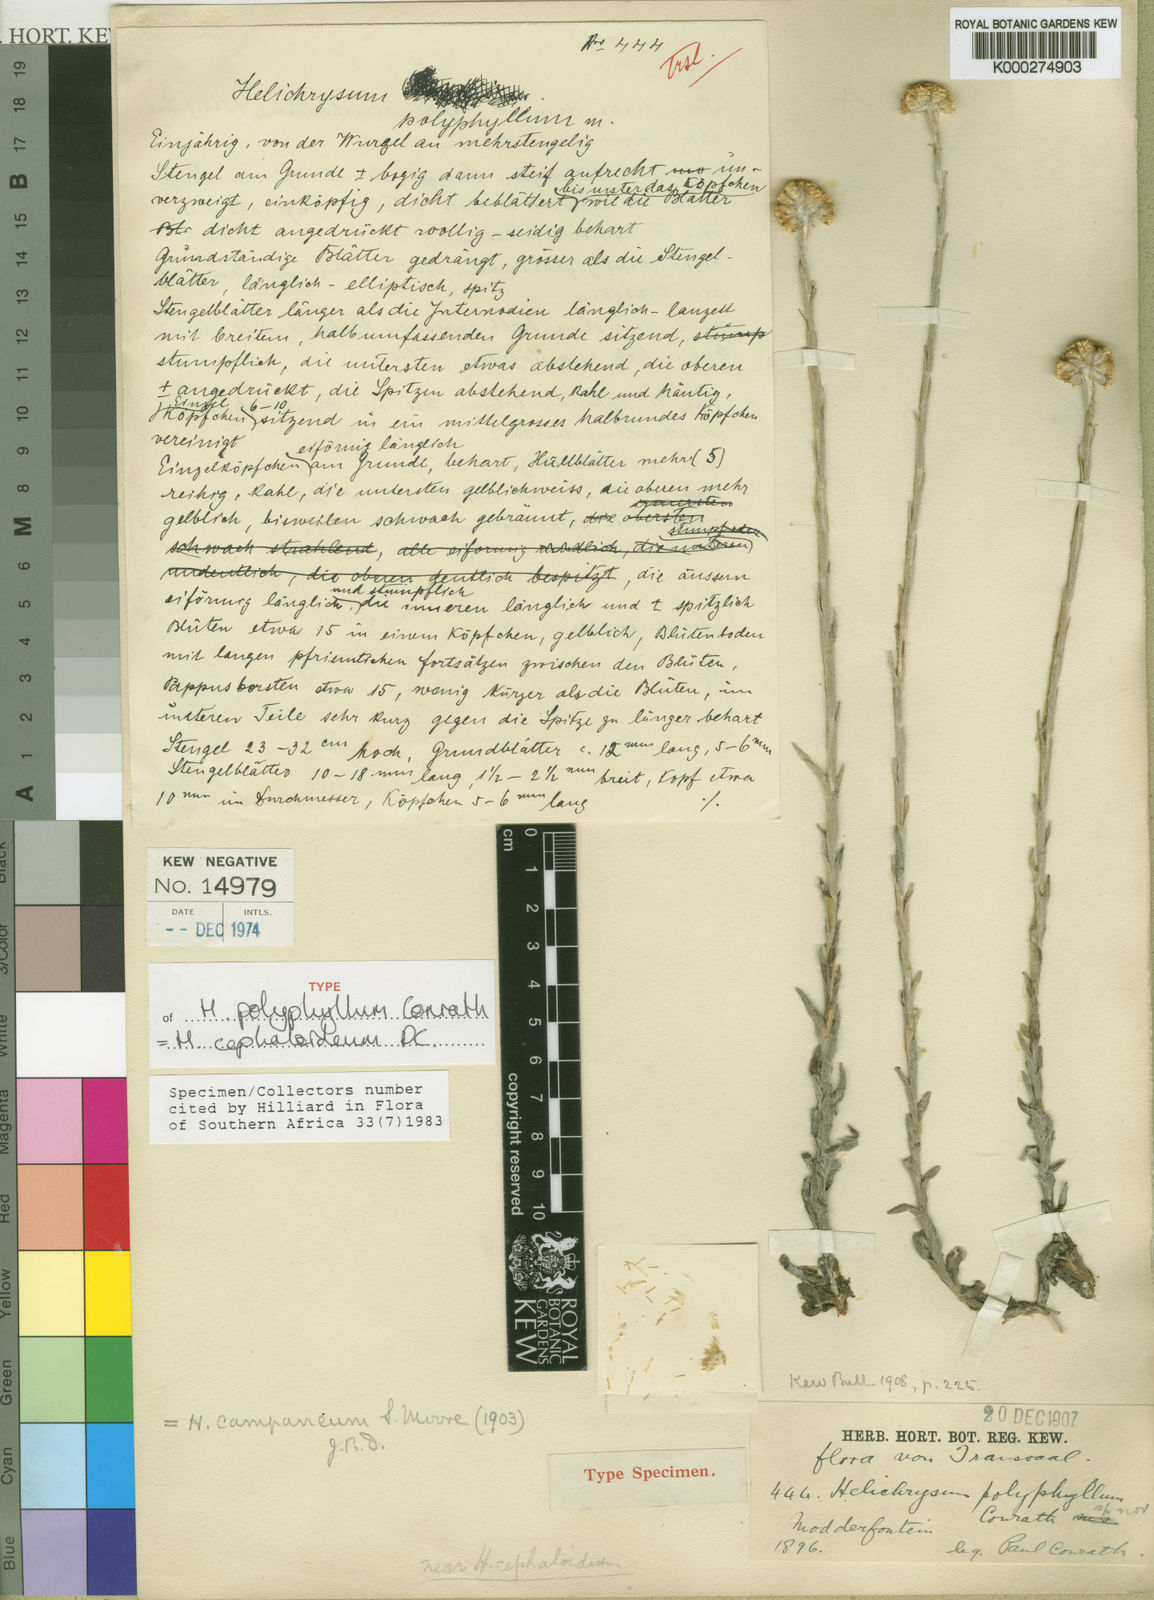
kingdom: Plantae
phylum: Tracheophyta
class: Magnoliopsida
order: Asterales
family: Asteraceae
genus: Helichrysum
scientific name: Helichrysum cephaloideum
